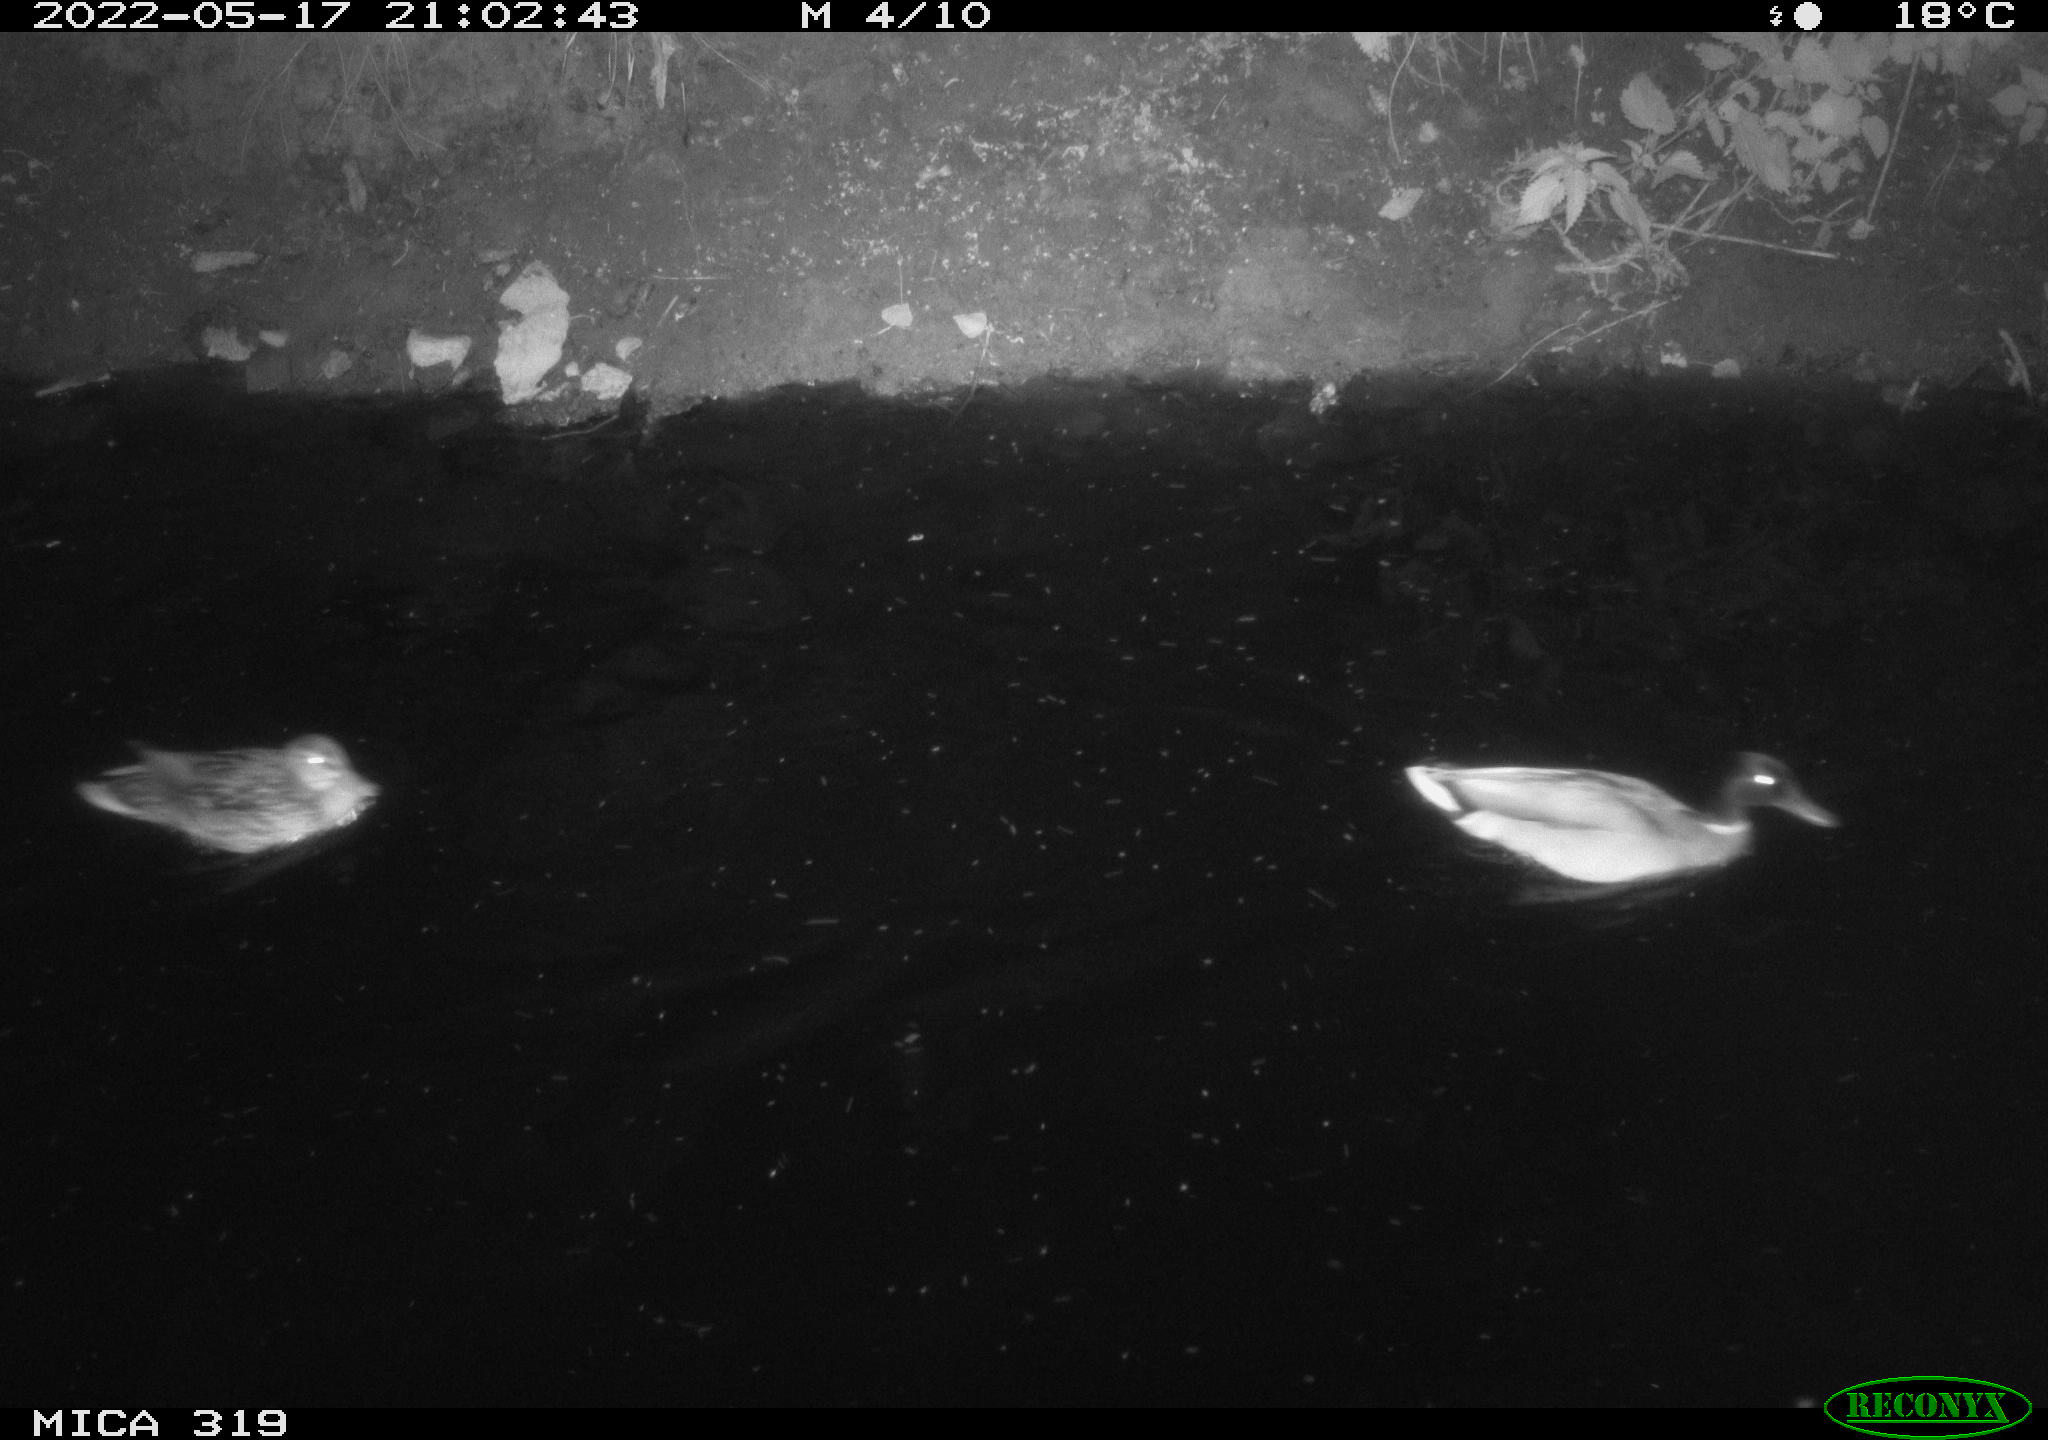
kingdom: Animalia
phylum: Chordata
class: Aves
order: Anseriformes
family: Anatidae
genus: Anas
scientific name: Anas
